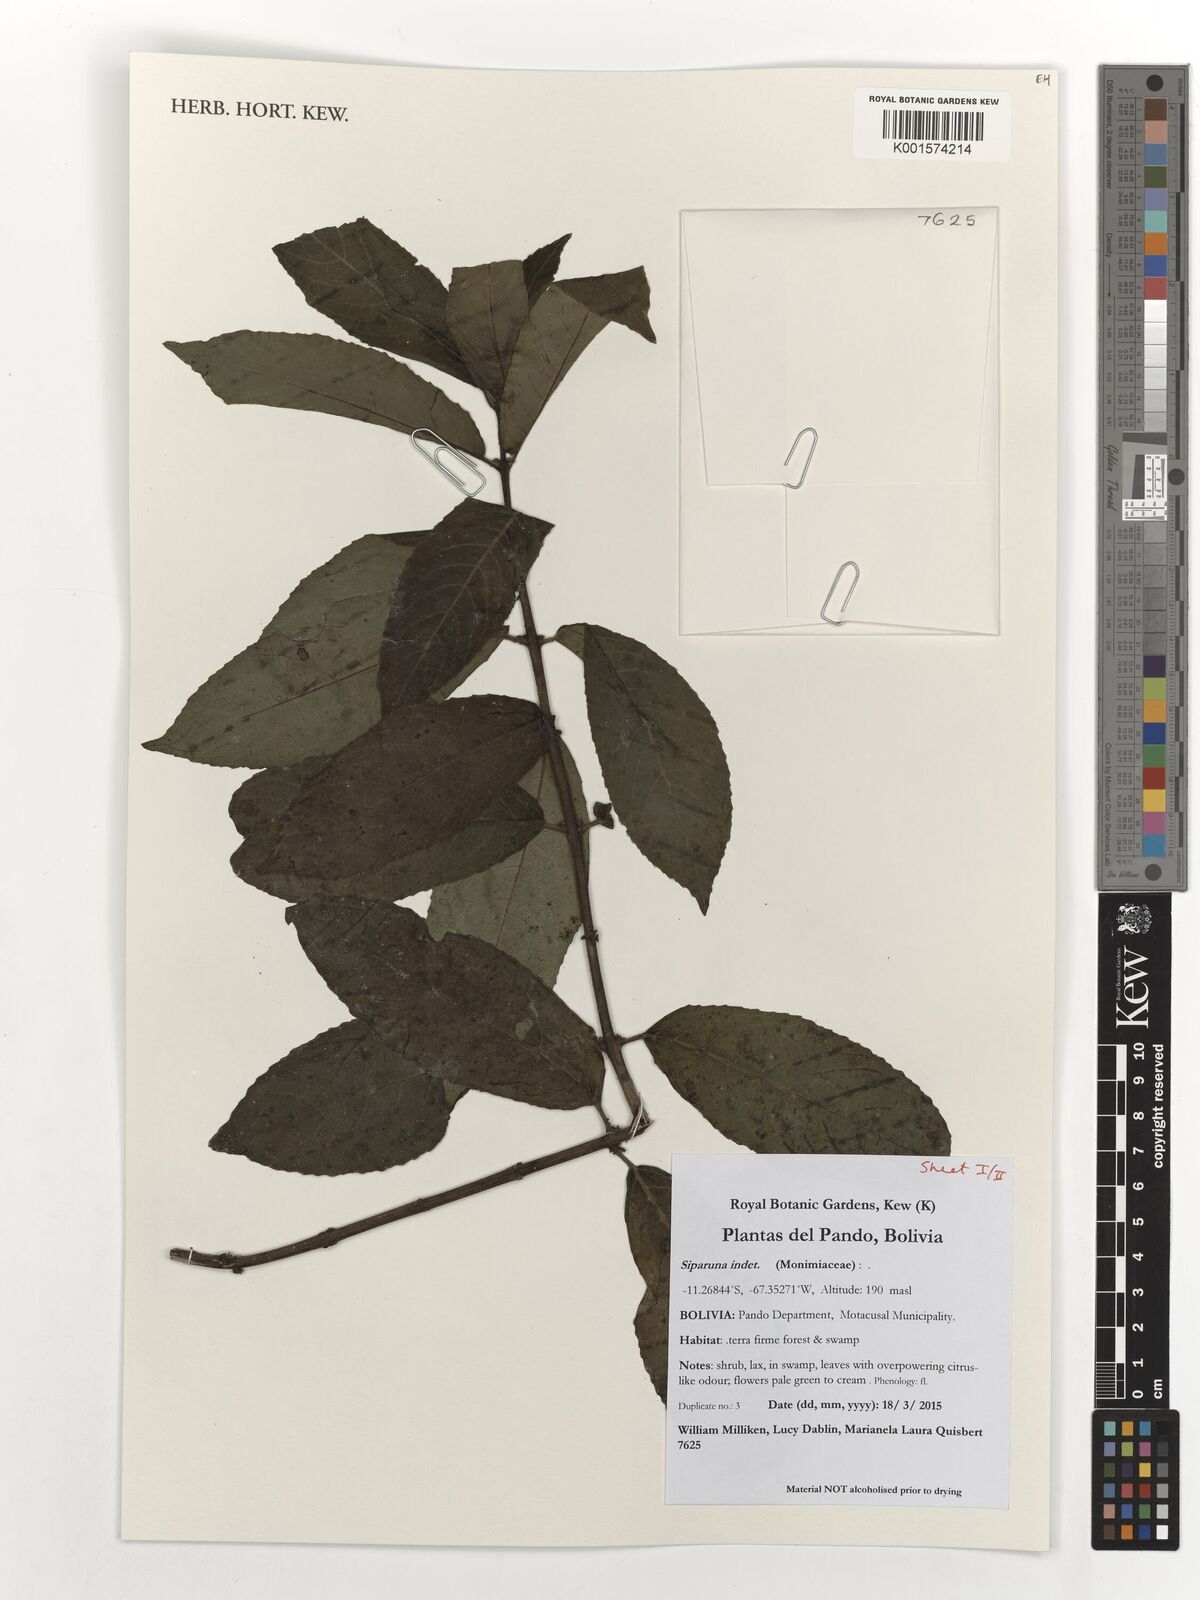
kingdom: Plantae
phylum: Tracheophyta
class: Magnoliopsida
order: Laurales
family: Siparunaceae
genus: Siparuna
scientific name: Siparuna
